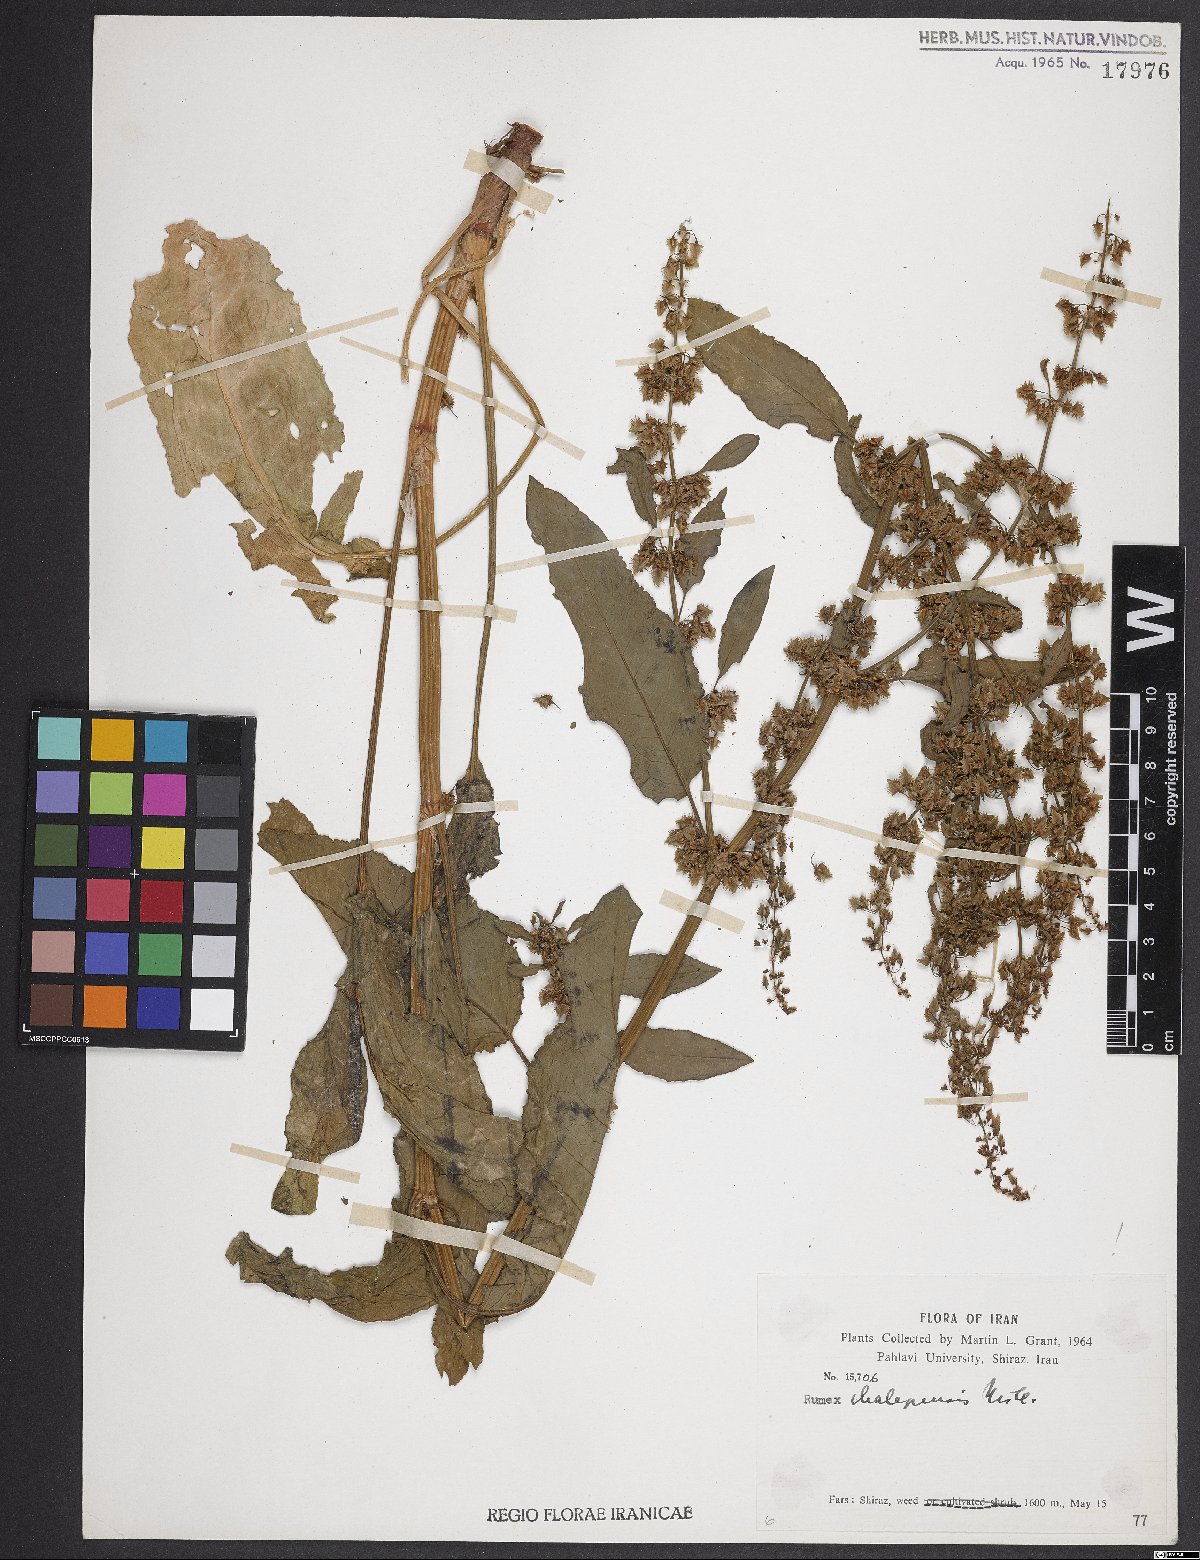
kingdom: Plantae
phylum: Tracheophyta
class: Magnoliopsida
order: Caryophyllales
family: Polygonaceae
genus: Rumex
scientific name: Rumex chalepensis
